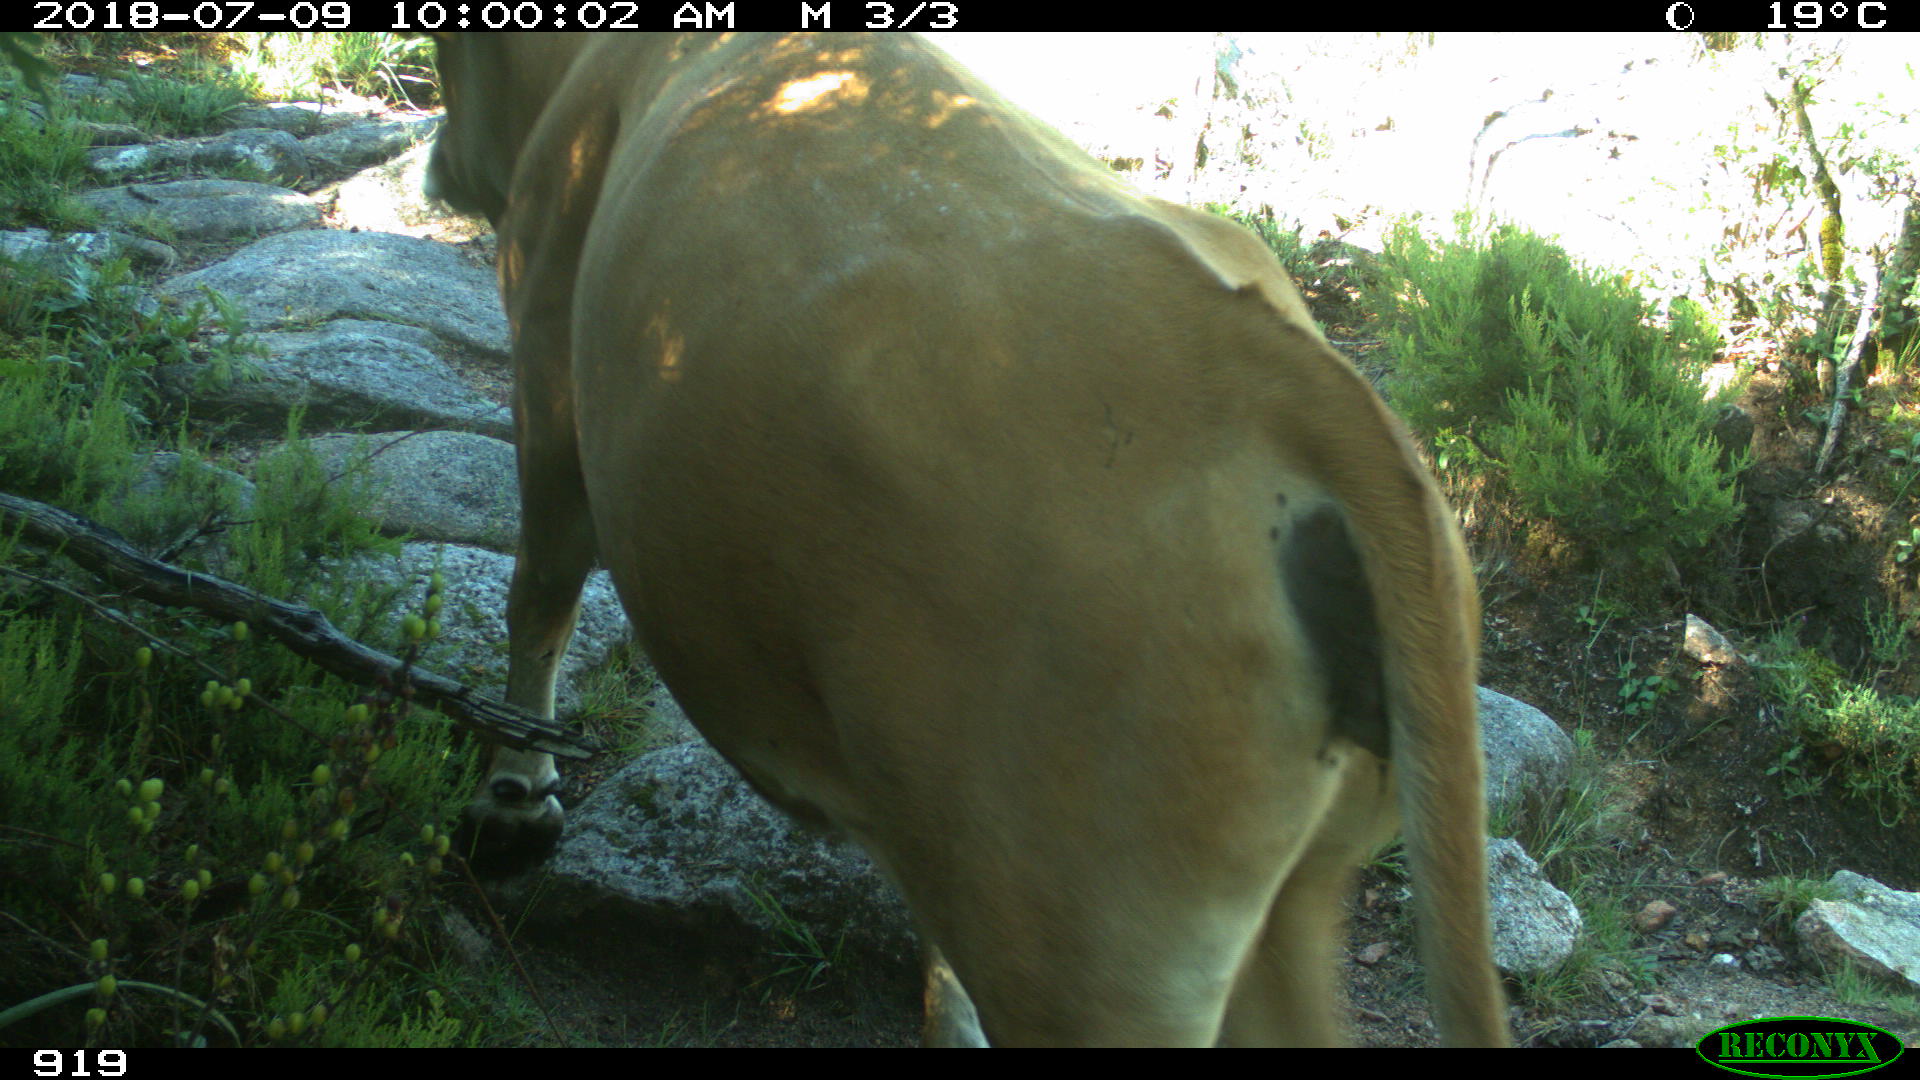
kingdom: Animalia
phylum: Chordata
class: Mammalia
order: Artiodactyla
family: Bovidae
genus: Bos
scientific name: Bos taurus
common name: Domesticated cattle
